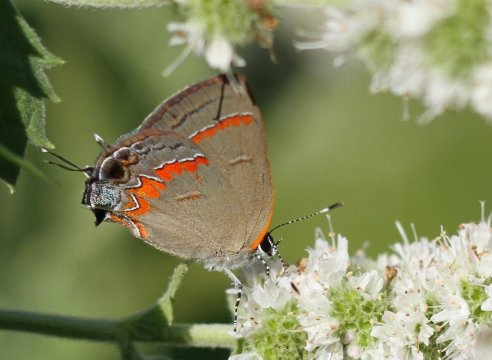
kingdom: Animalia
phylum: Arthropoda
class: Insecta
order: Lepidoptera
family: Lycaenidae
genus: Calycopis
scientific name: Calycopis cecrops
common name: Red-banded Hairstreak
